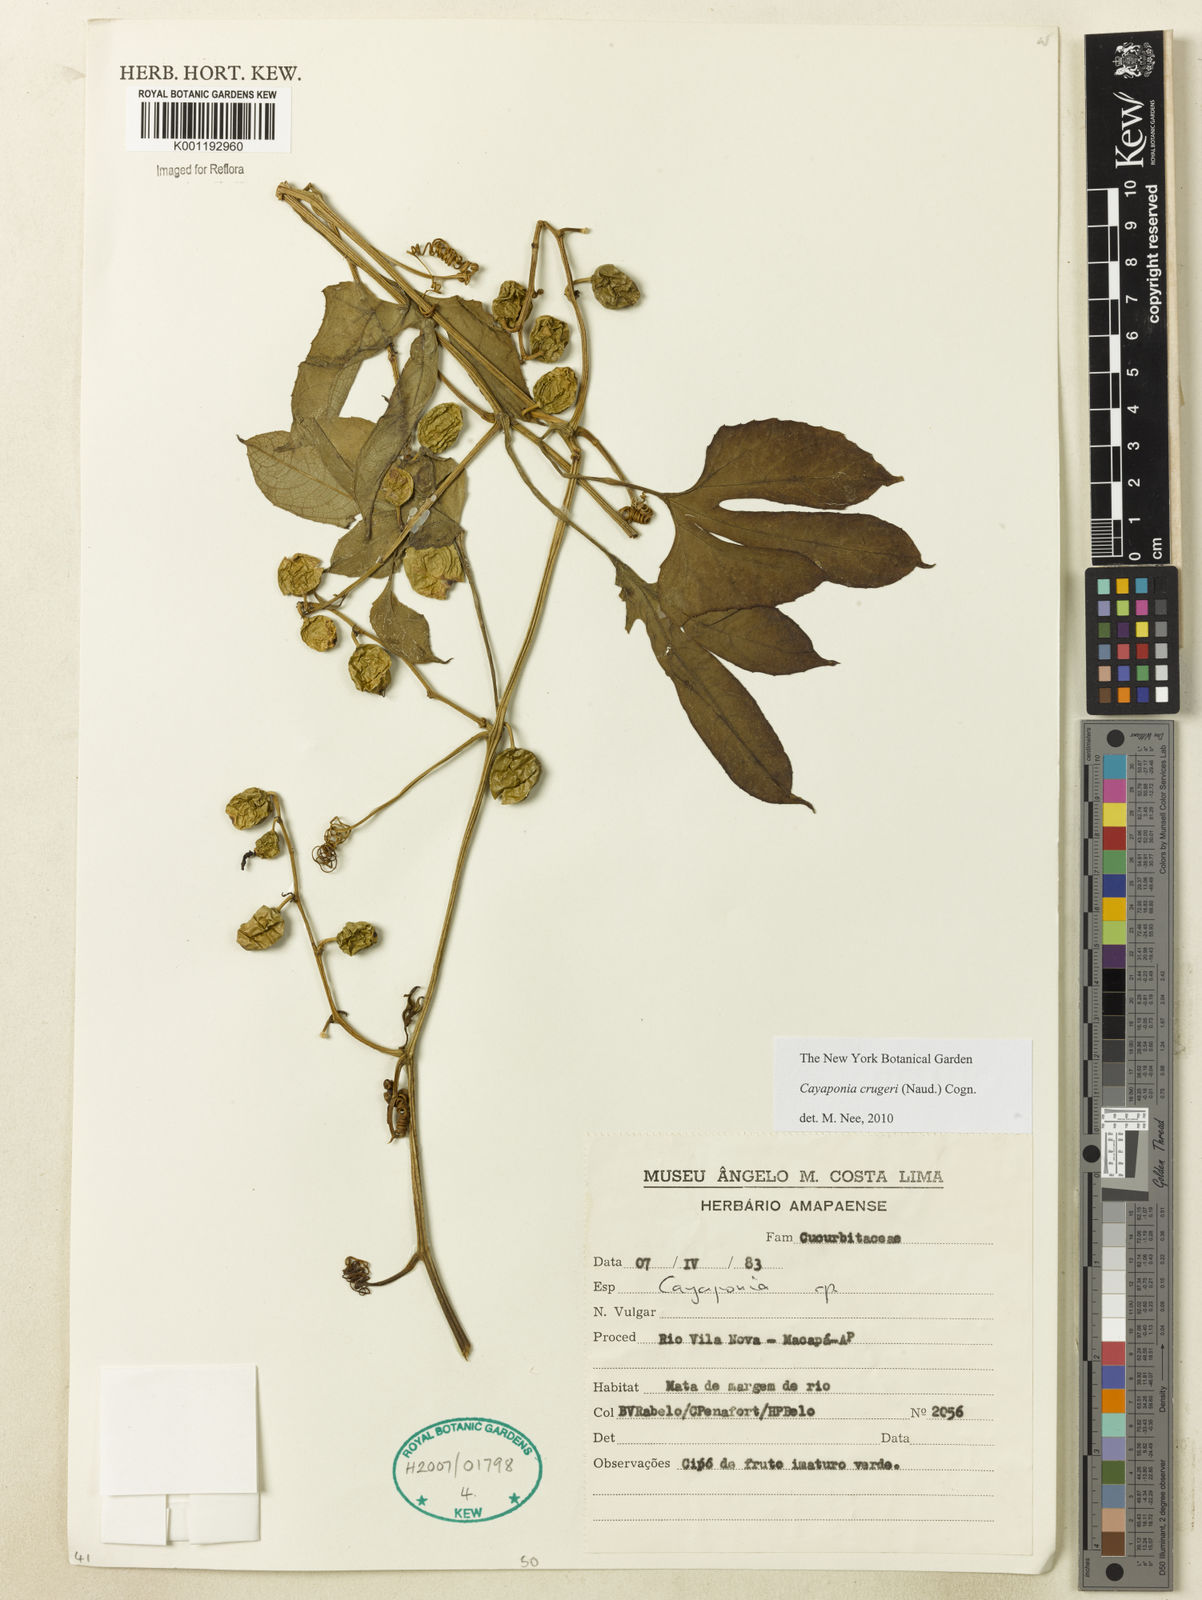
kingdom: Plantae
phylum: Tracheophyta
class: Magnoliopsida
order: Cucurbitales
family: Cucurbitaceae
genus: Cayaponia
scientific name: Cayaponia cruegeri
